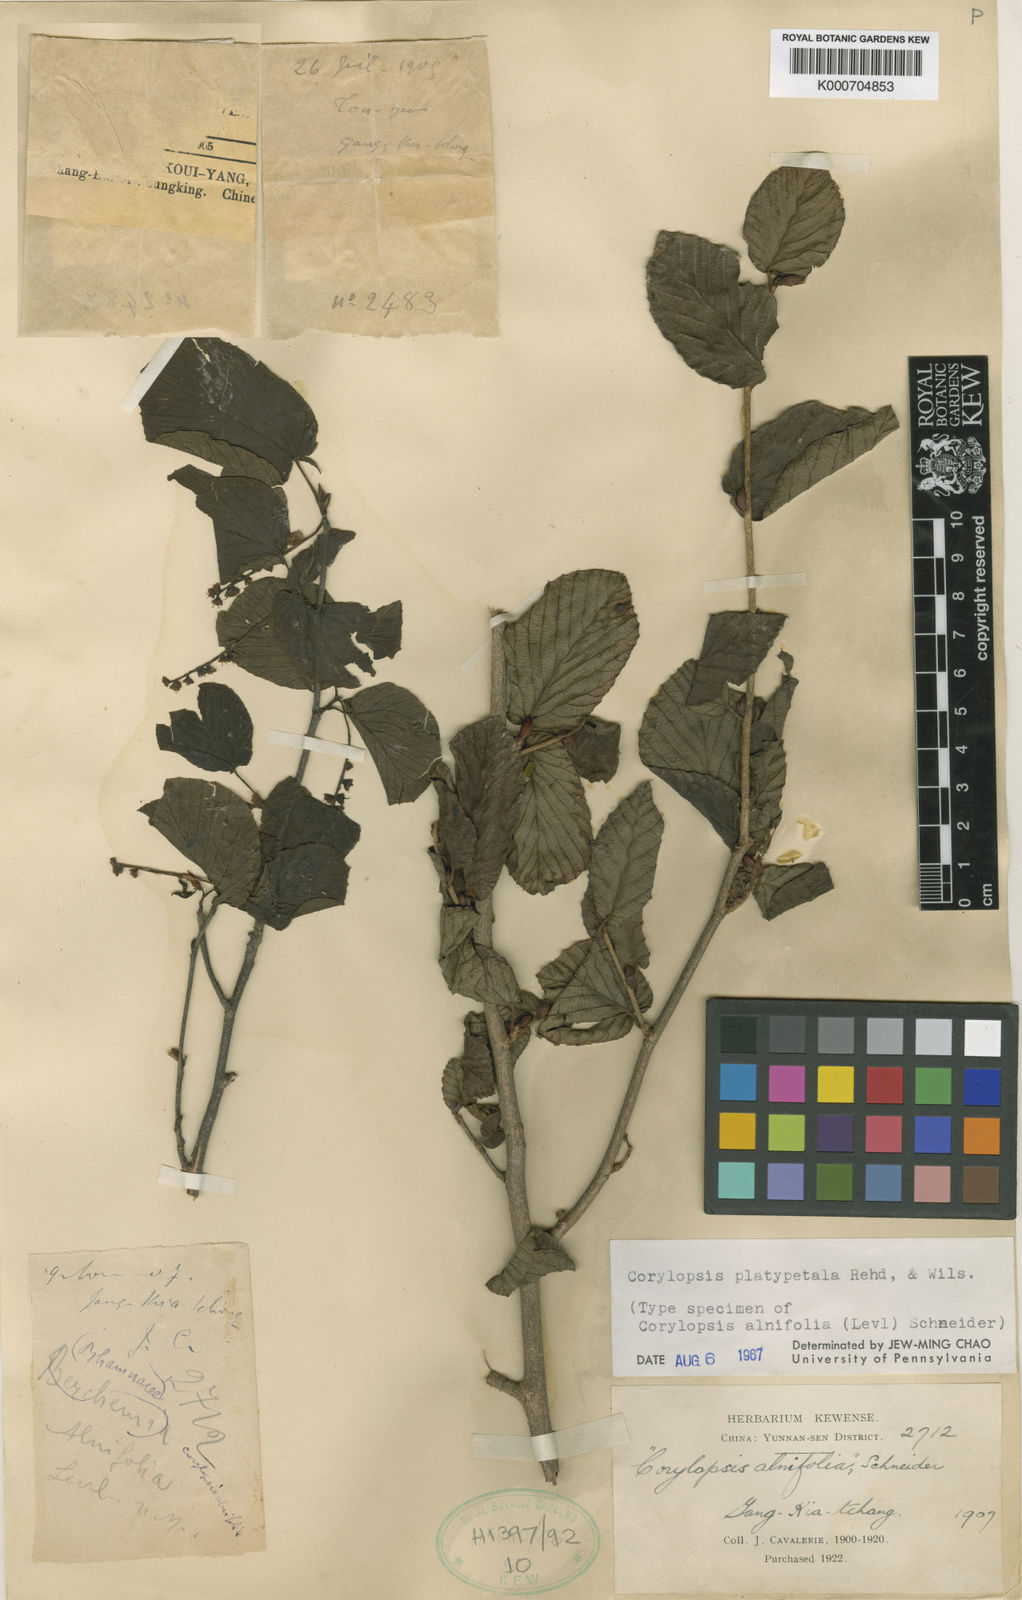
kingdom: Plantae
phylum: Tracheophyta
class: Magnoliopsida
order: Saxifragales
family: Hamamelidaceae
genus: Corylopsis
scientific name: Corylopsis sinensis
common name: Winter hazel
